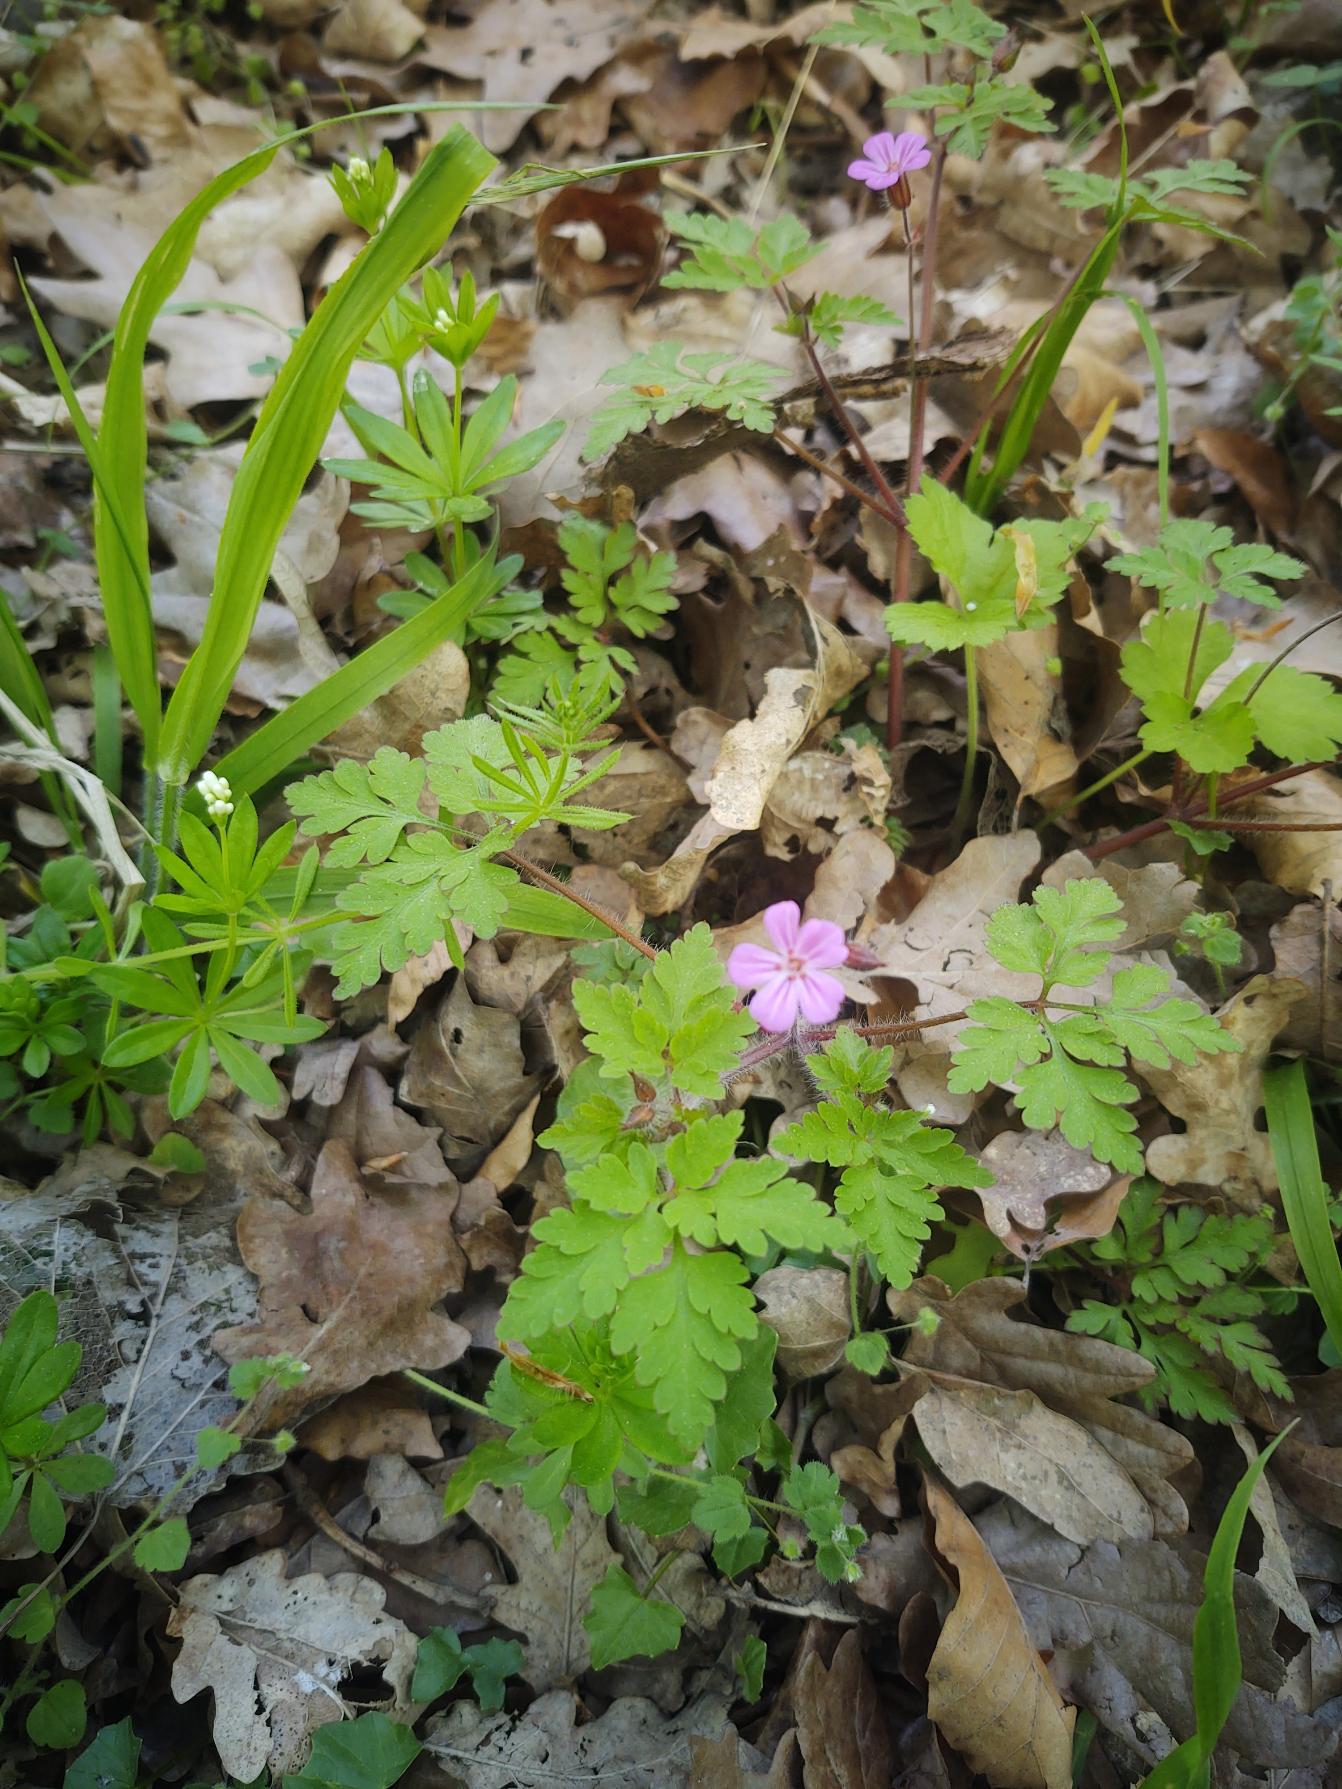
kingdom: Plantae
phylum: Tracheophyta
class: Magnoliopsida
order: Geraniales
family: Geraniaceae
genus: Geranium
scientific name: Geranium robertianum
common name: Stinkende storkenæb
